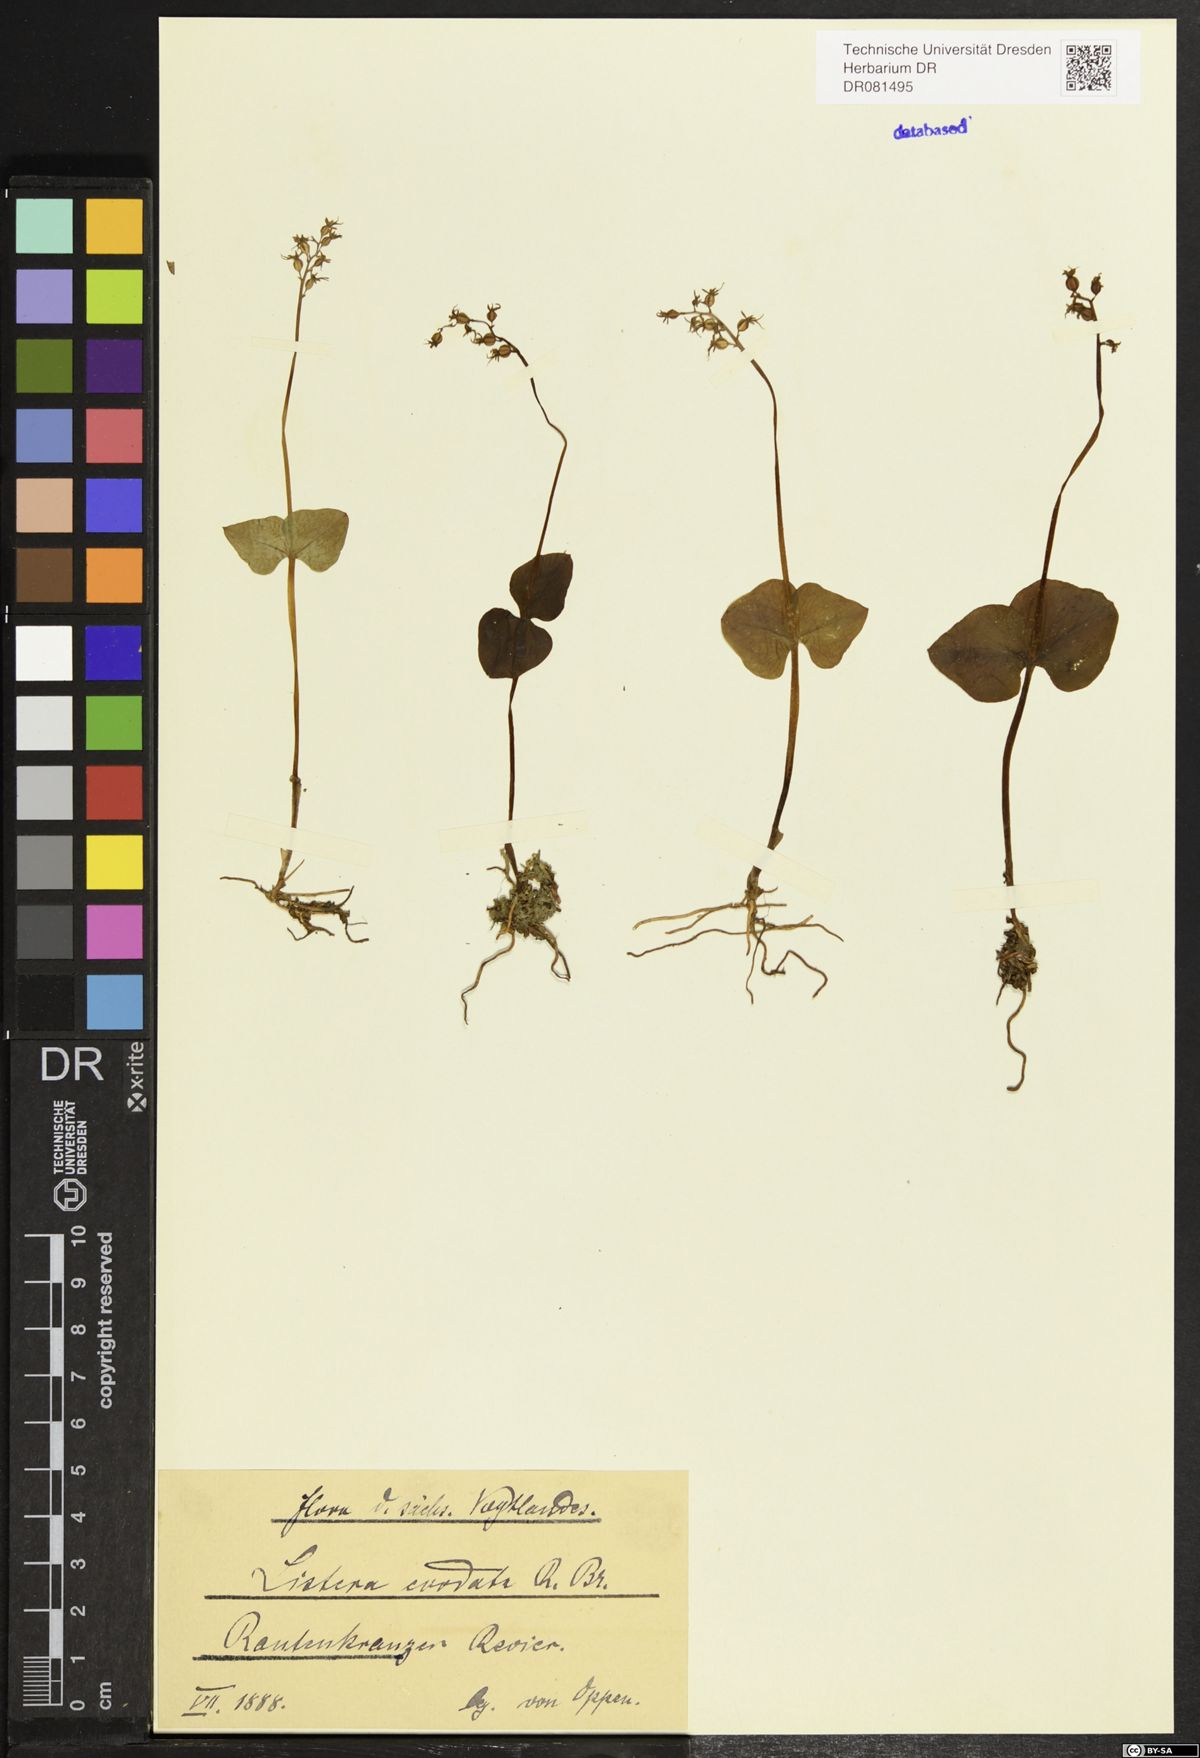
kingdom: Plantae
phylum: Tracheophyta
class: Liliopsida
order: Asparagales
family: Orchidaceae
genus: Neottia
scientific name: Neottia cordata
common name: Lesser twayblade
